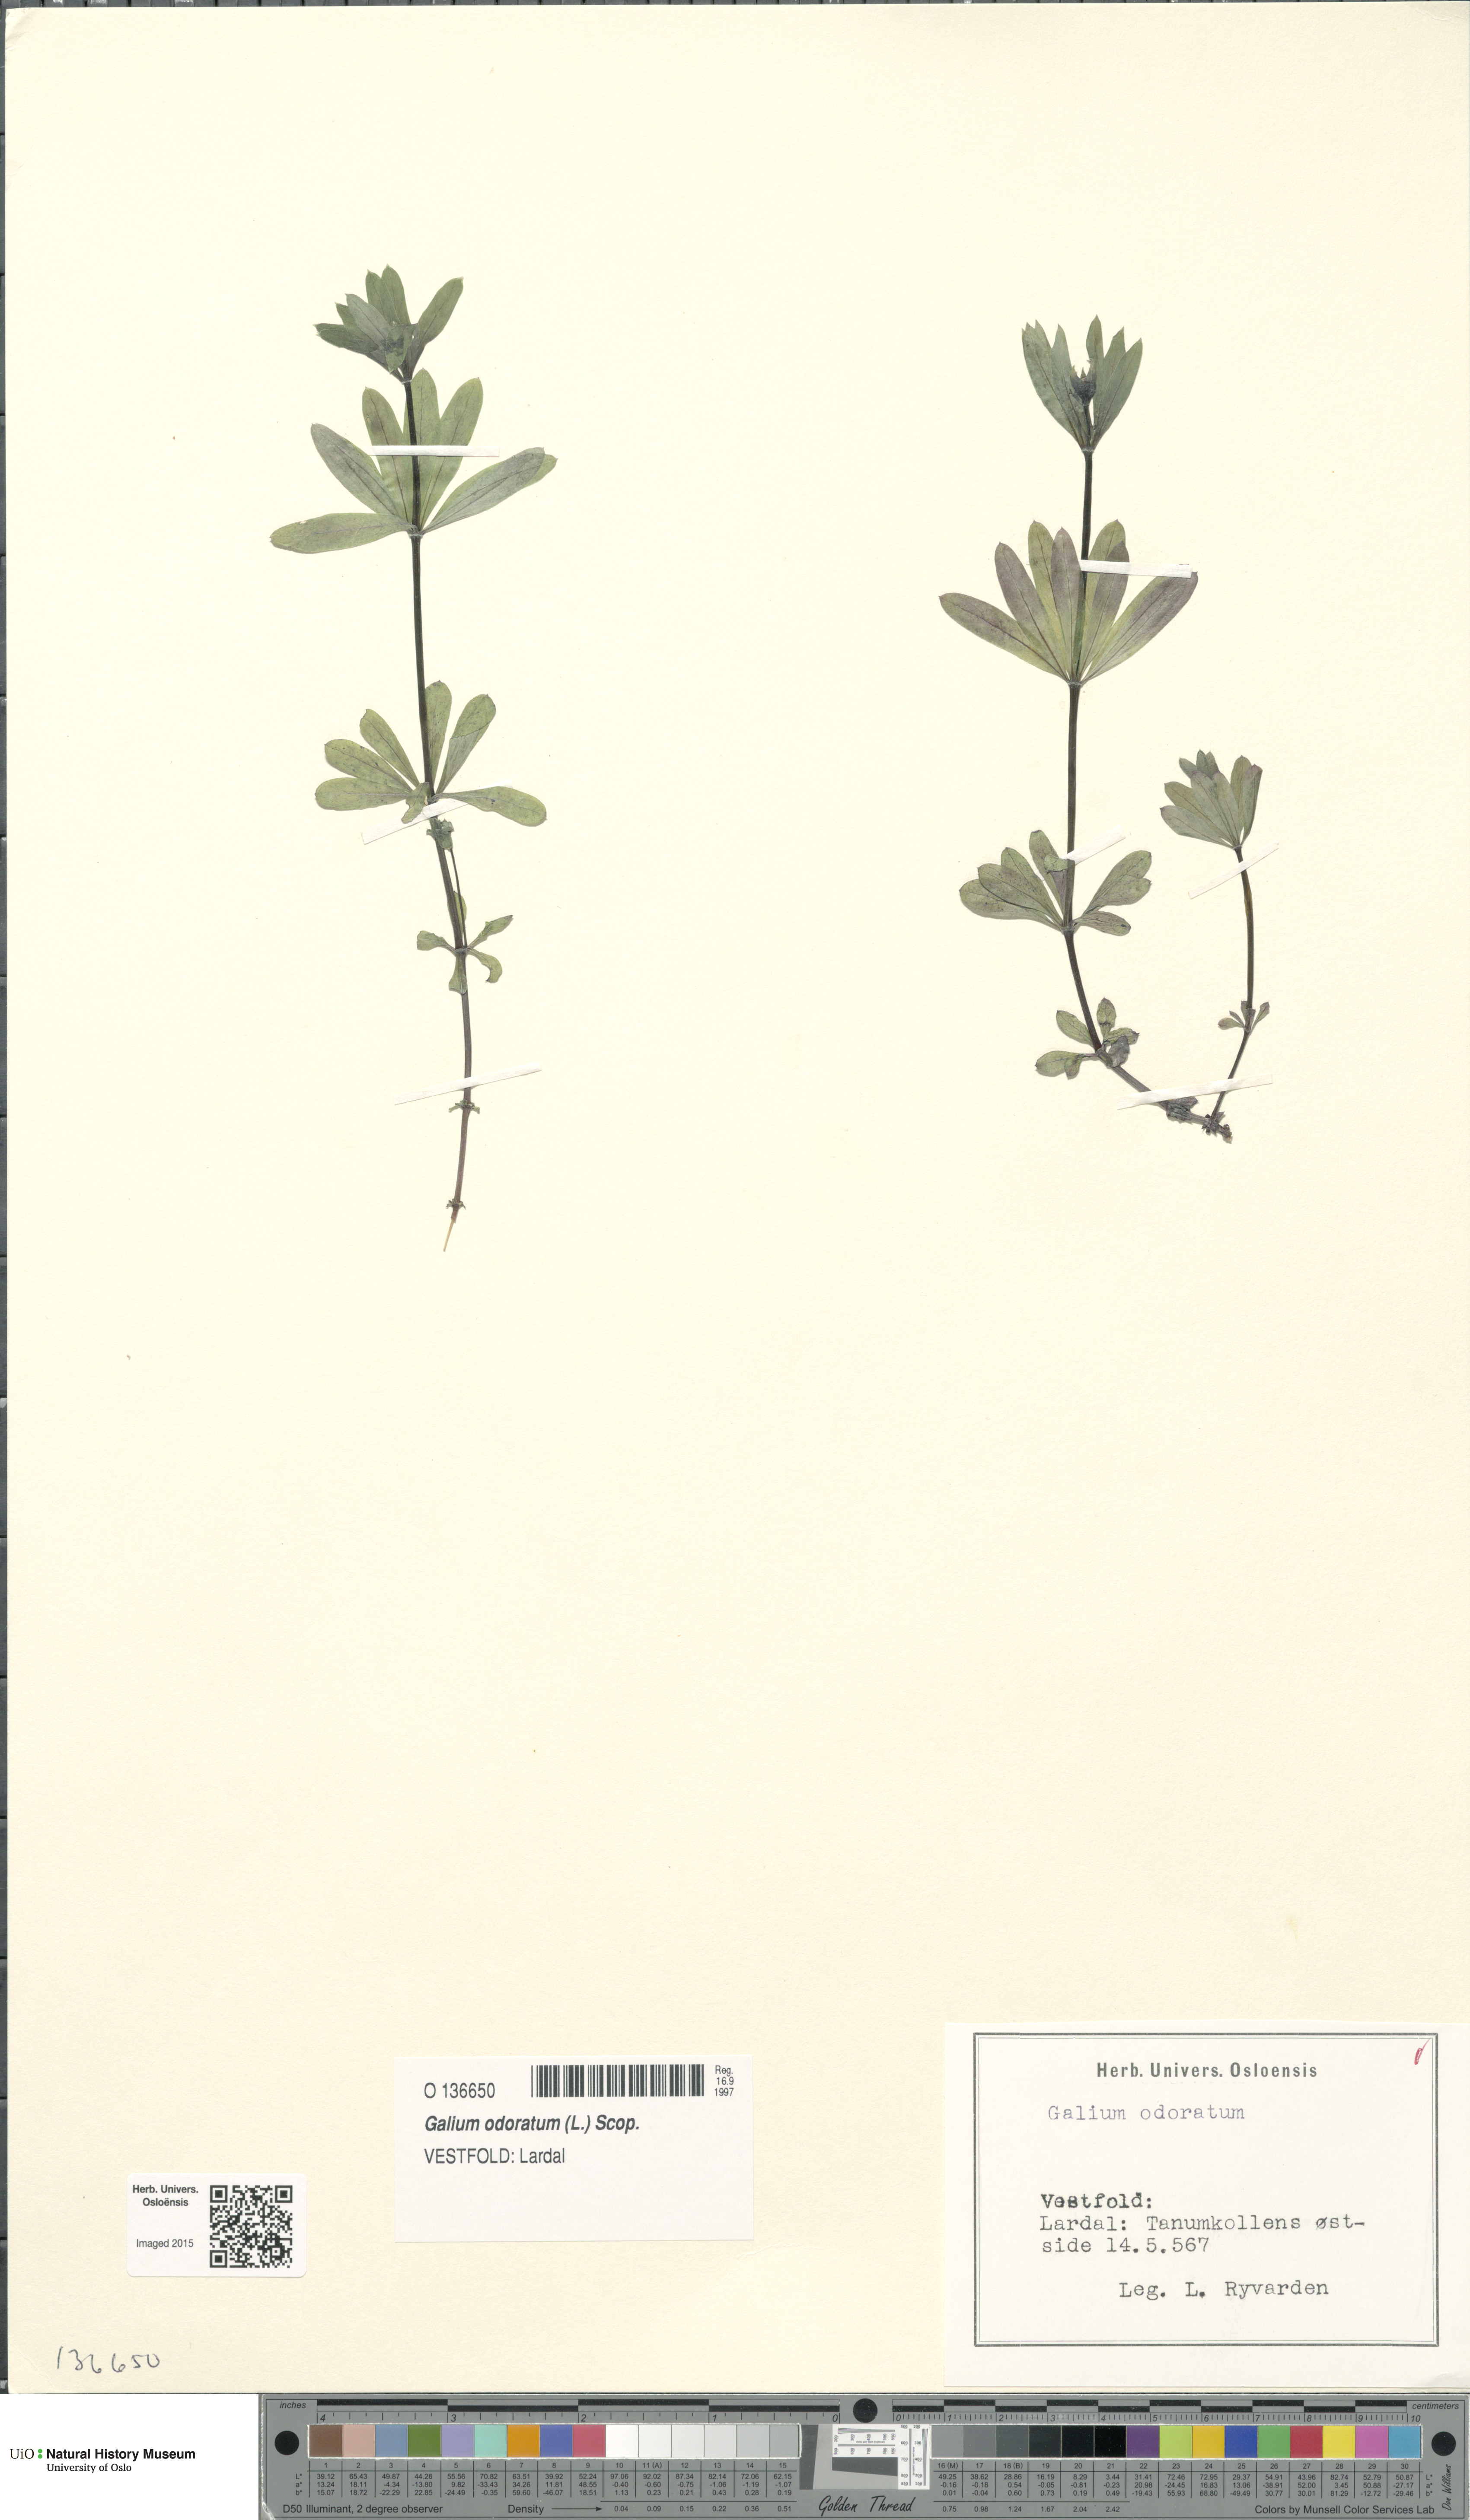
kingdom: Plantae
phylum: Tracheophyta
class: Magnoliopsida
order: Gentianales
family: Rubiaceae
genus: Galium
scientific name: Galium odoratum
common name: Sweet woodruff
